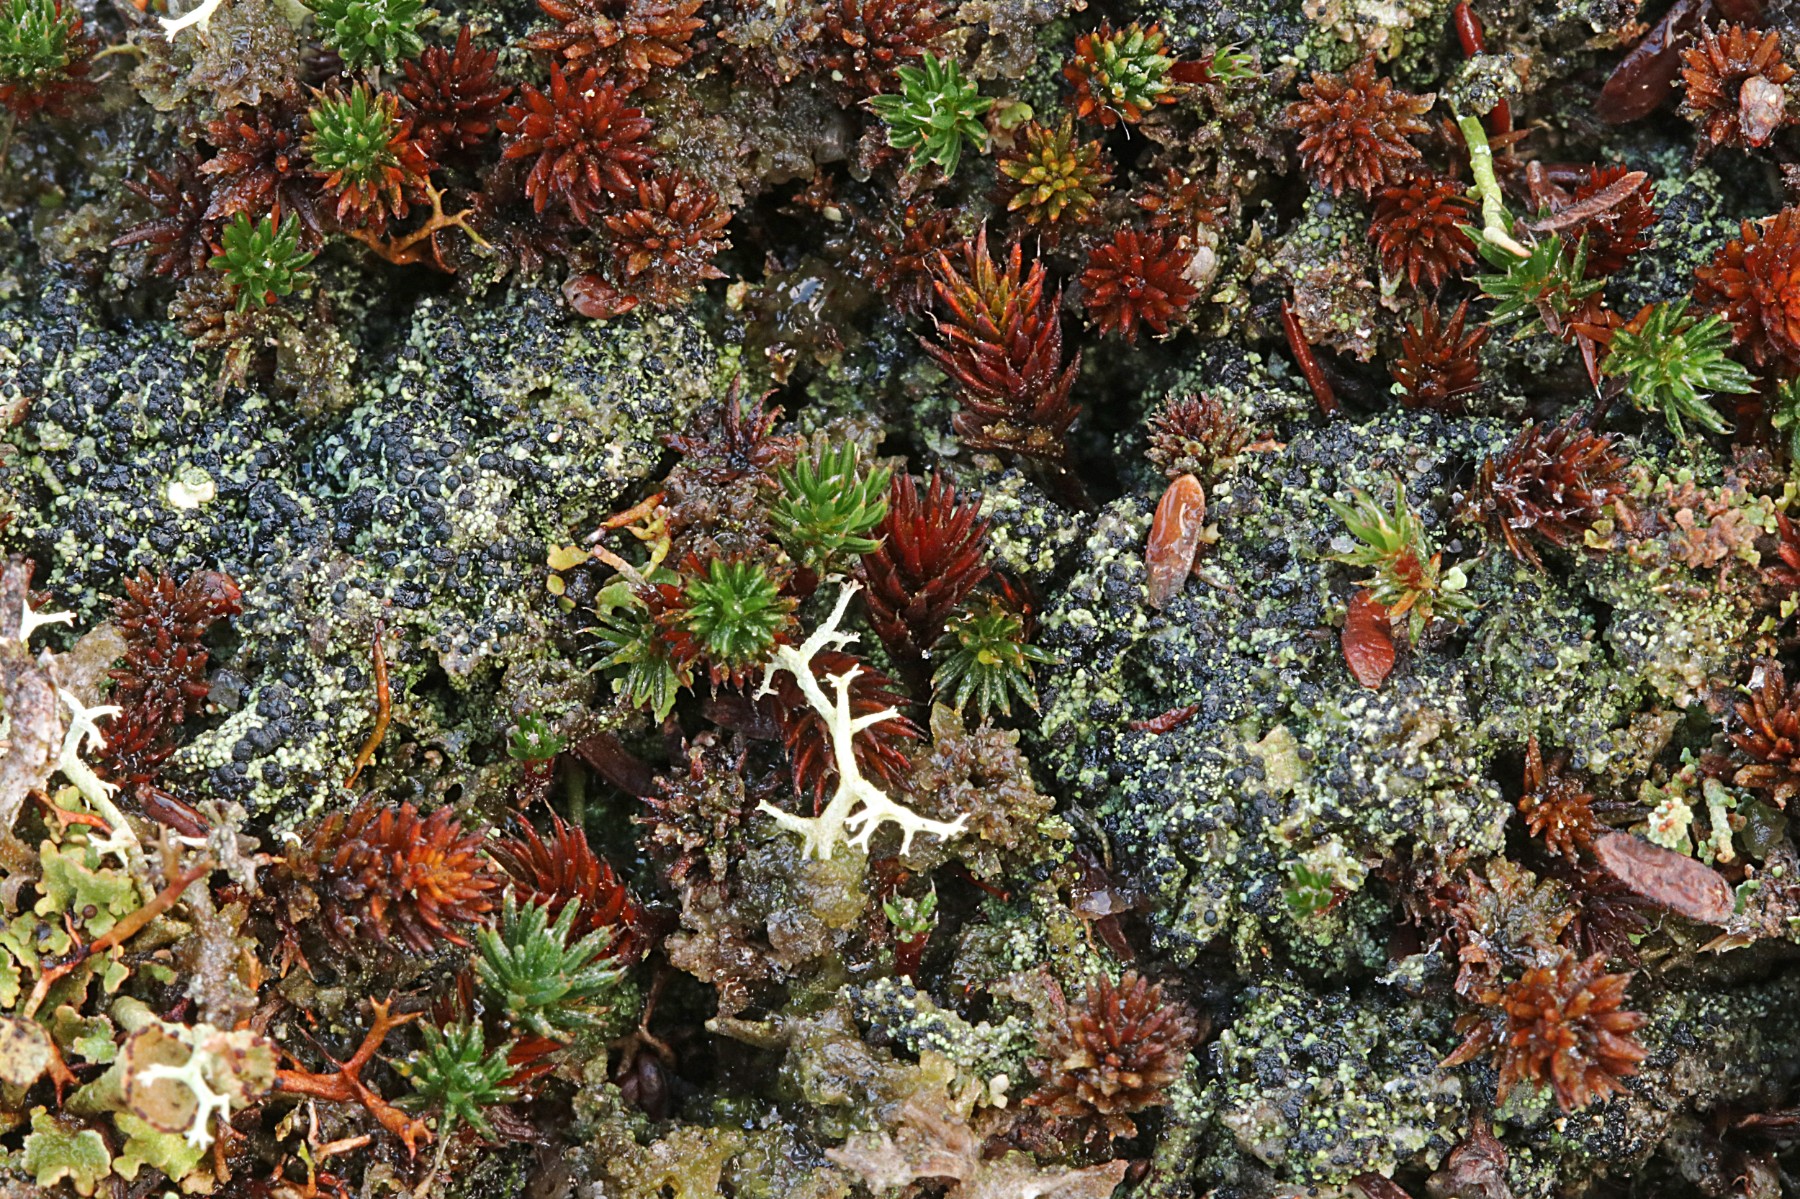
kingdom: Fungi
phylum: Ascomycota
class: Lecanoromycetes
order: Lecanorales
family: Byssolomataceae
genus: Micarea
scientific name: Micarea lignaria
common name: tørve-knaplav
